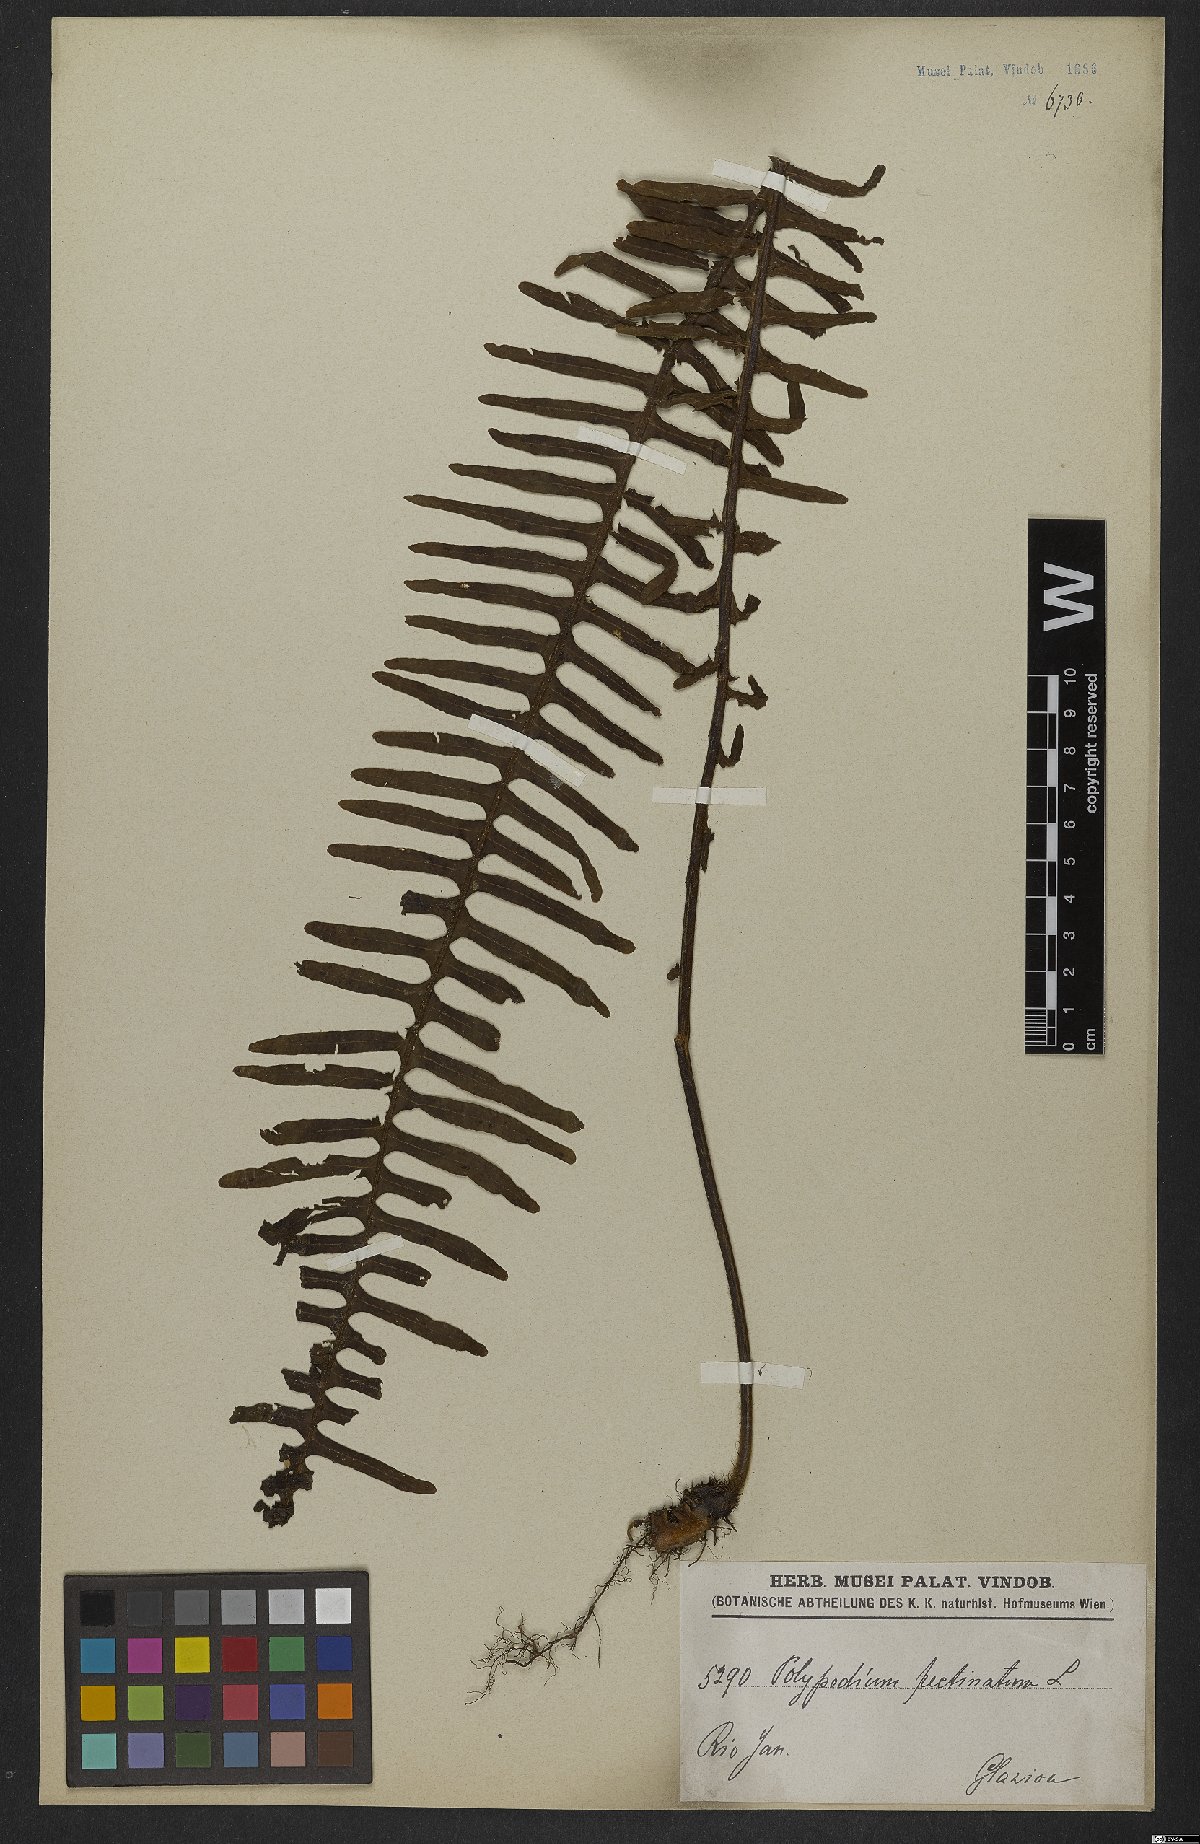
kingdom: Plantae
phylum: Tracheophyta
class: Polypodiopsida
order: Polypodiales
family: Polypodiaceae
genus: Pecluma
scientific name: Pecluma pectinata
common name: Msasa fern
